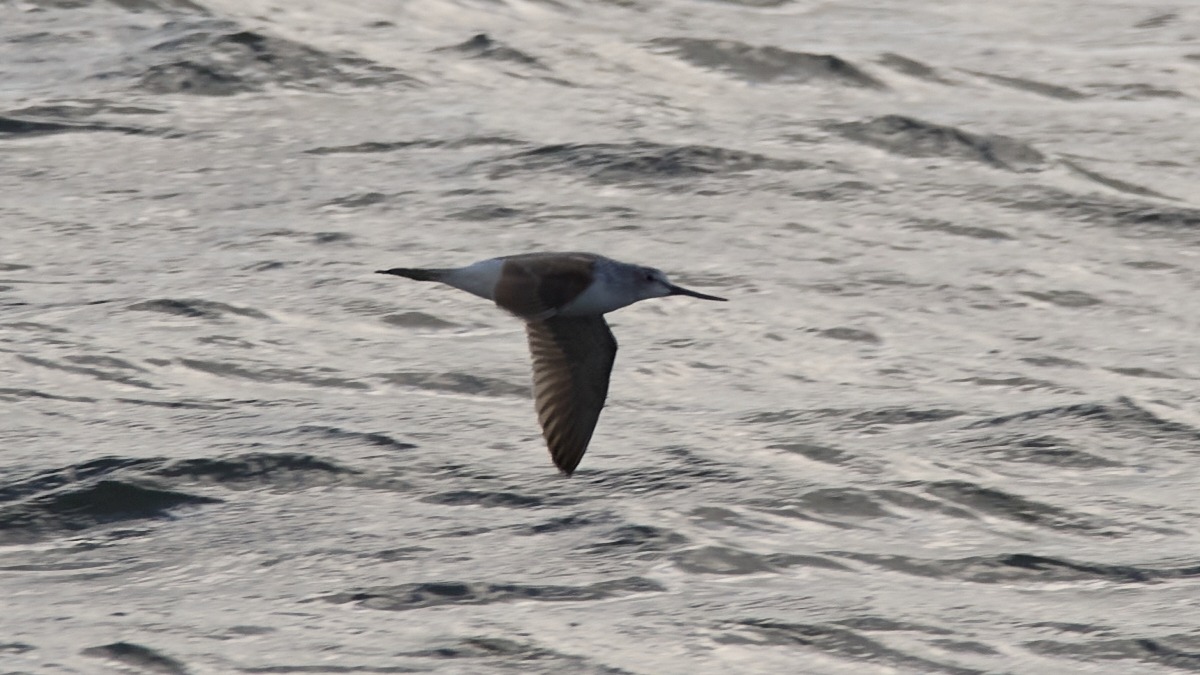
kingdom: Animalia
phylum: Chordata
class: Aves
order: Charadriiformes
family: Scolopacidae
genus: Tringa
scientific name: Tringa nebularia
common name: Hvidklire
